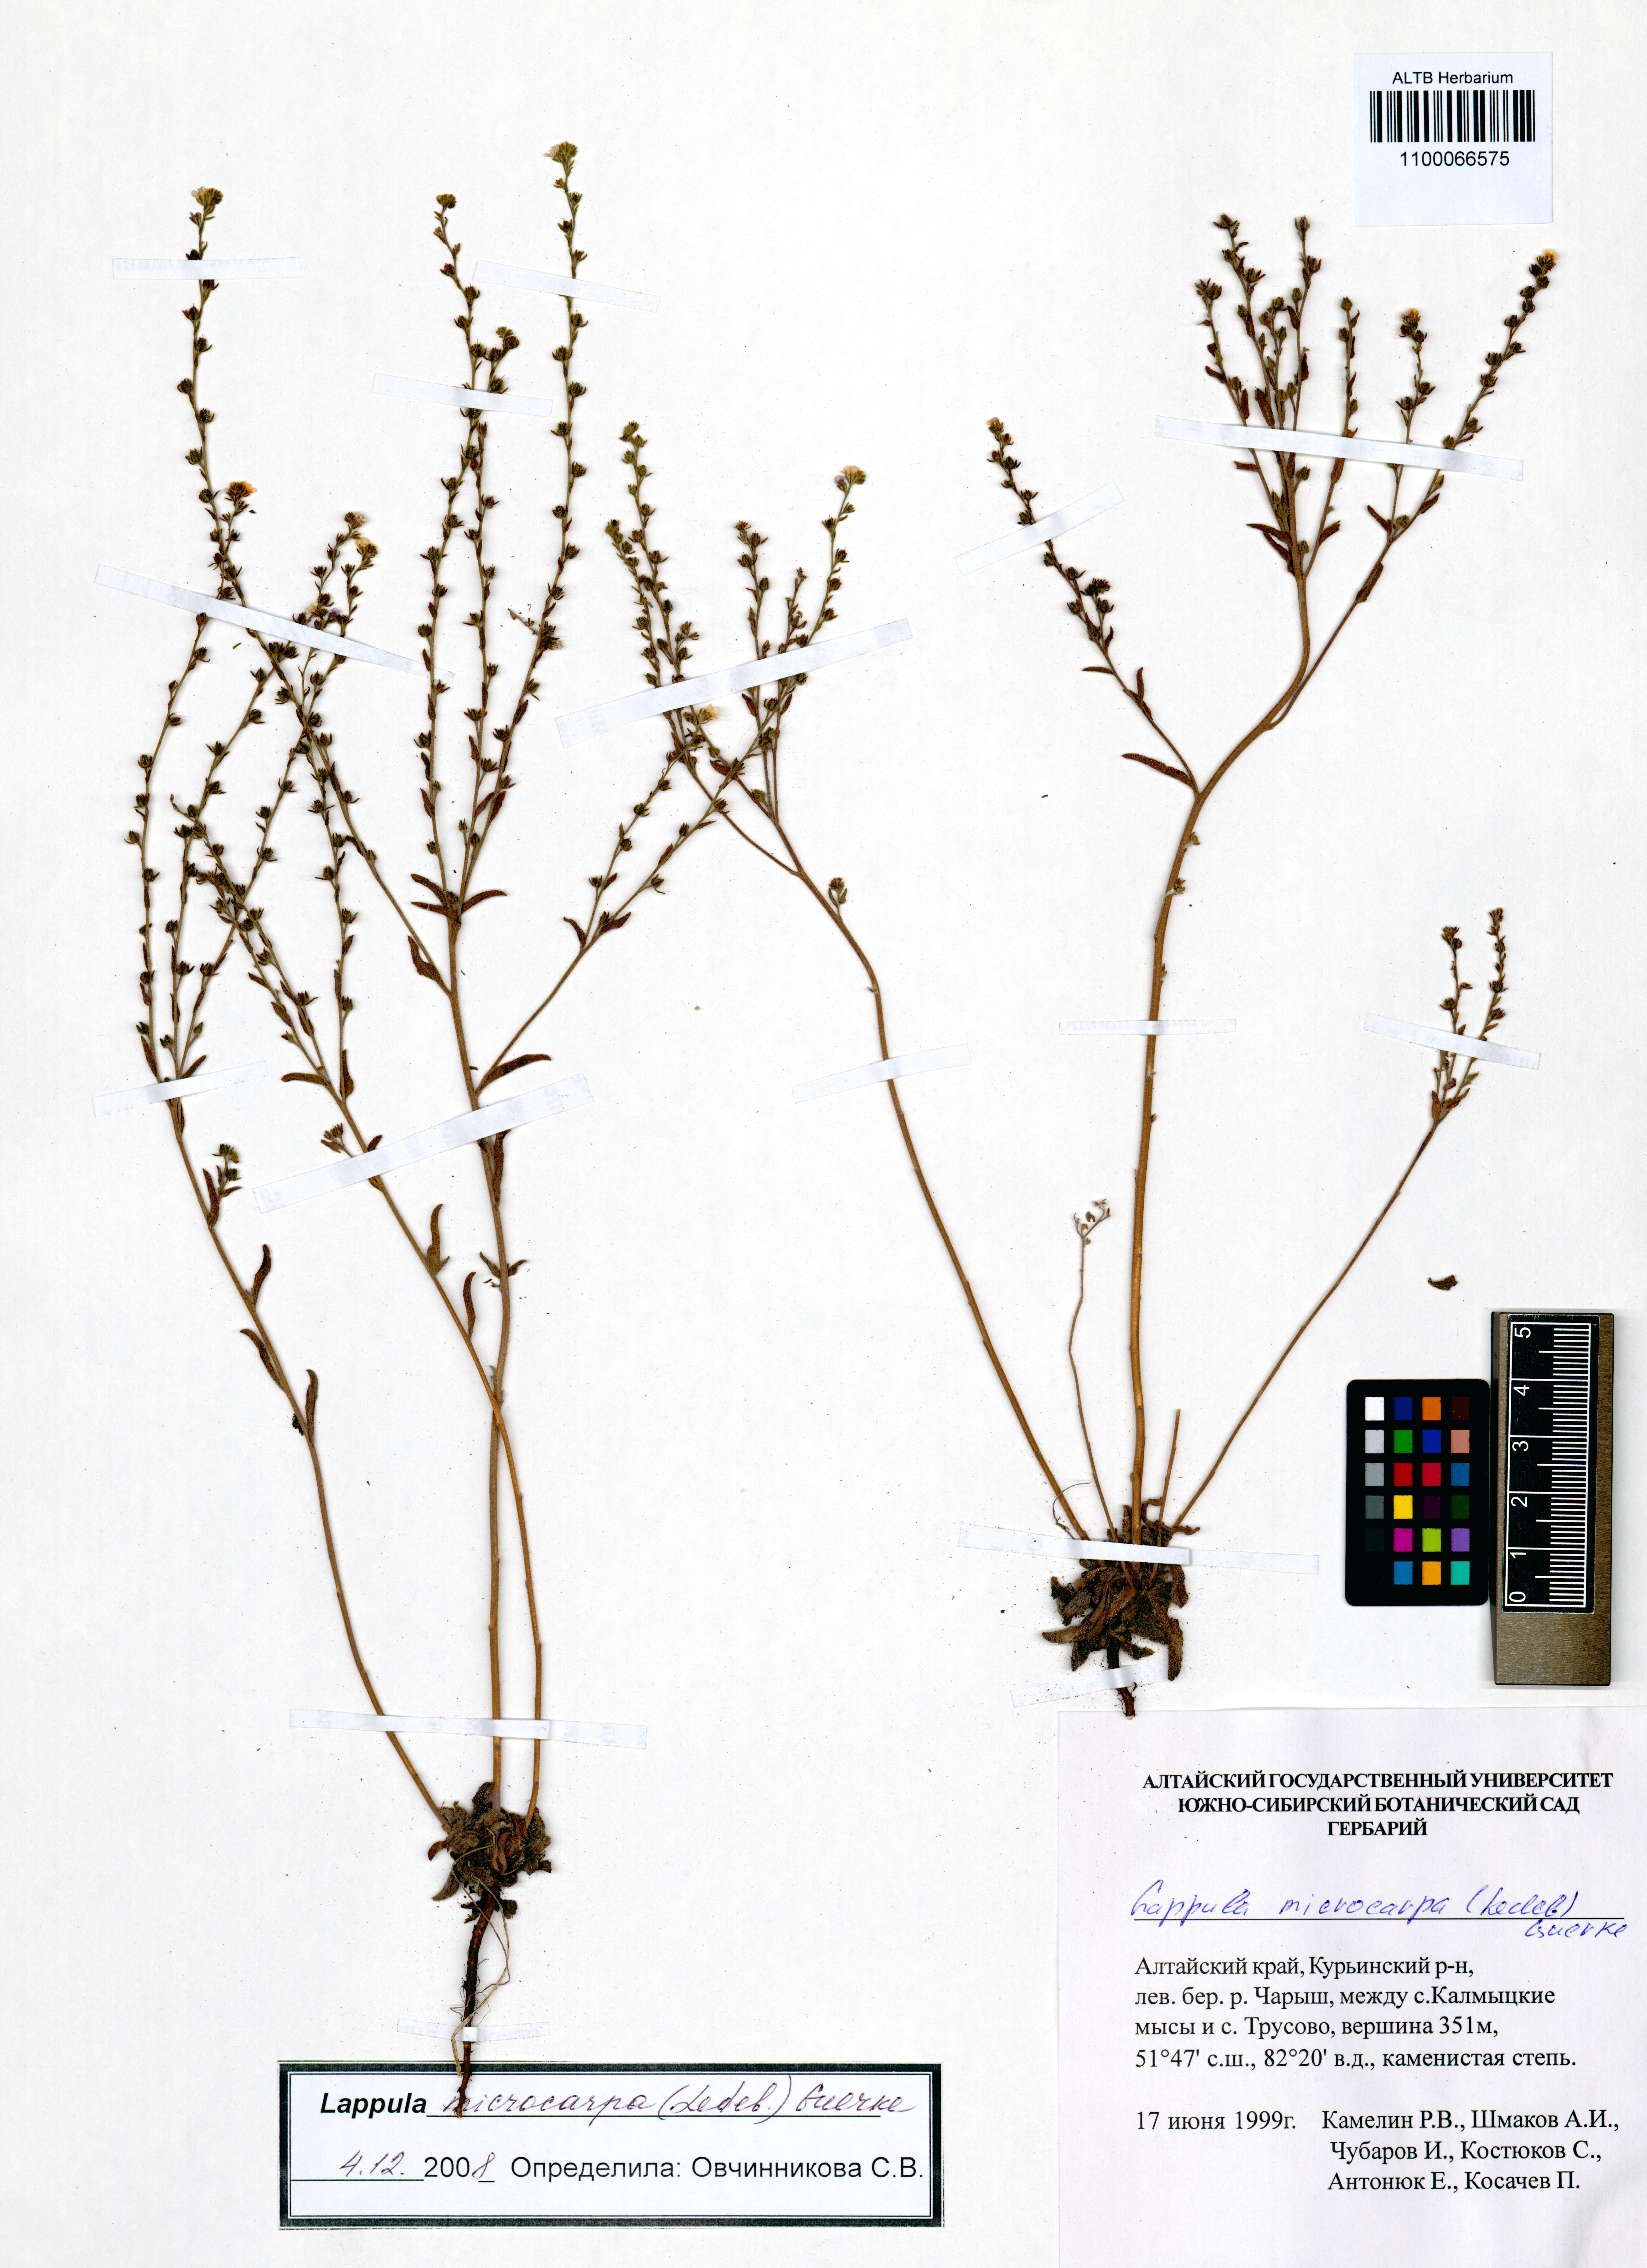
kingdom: Plantae
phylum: Tracheophyta
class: Magnoliopsida
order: Boraginales
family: Boraginaceae
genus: Lappula
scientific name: Lappula microcarpa
